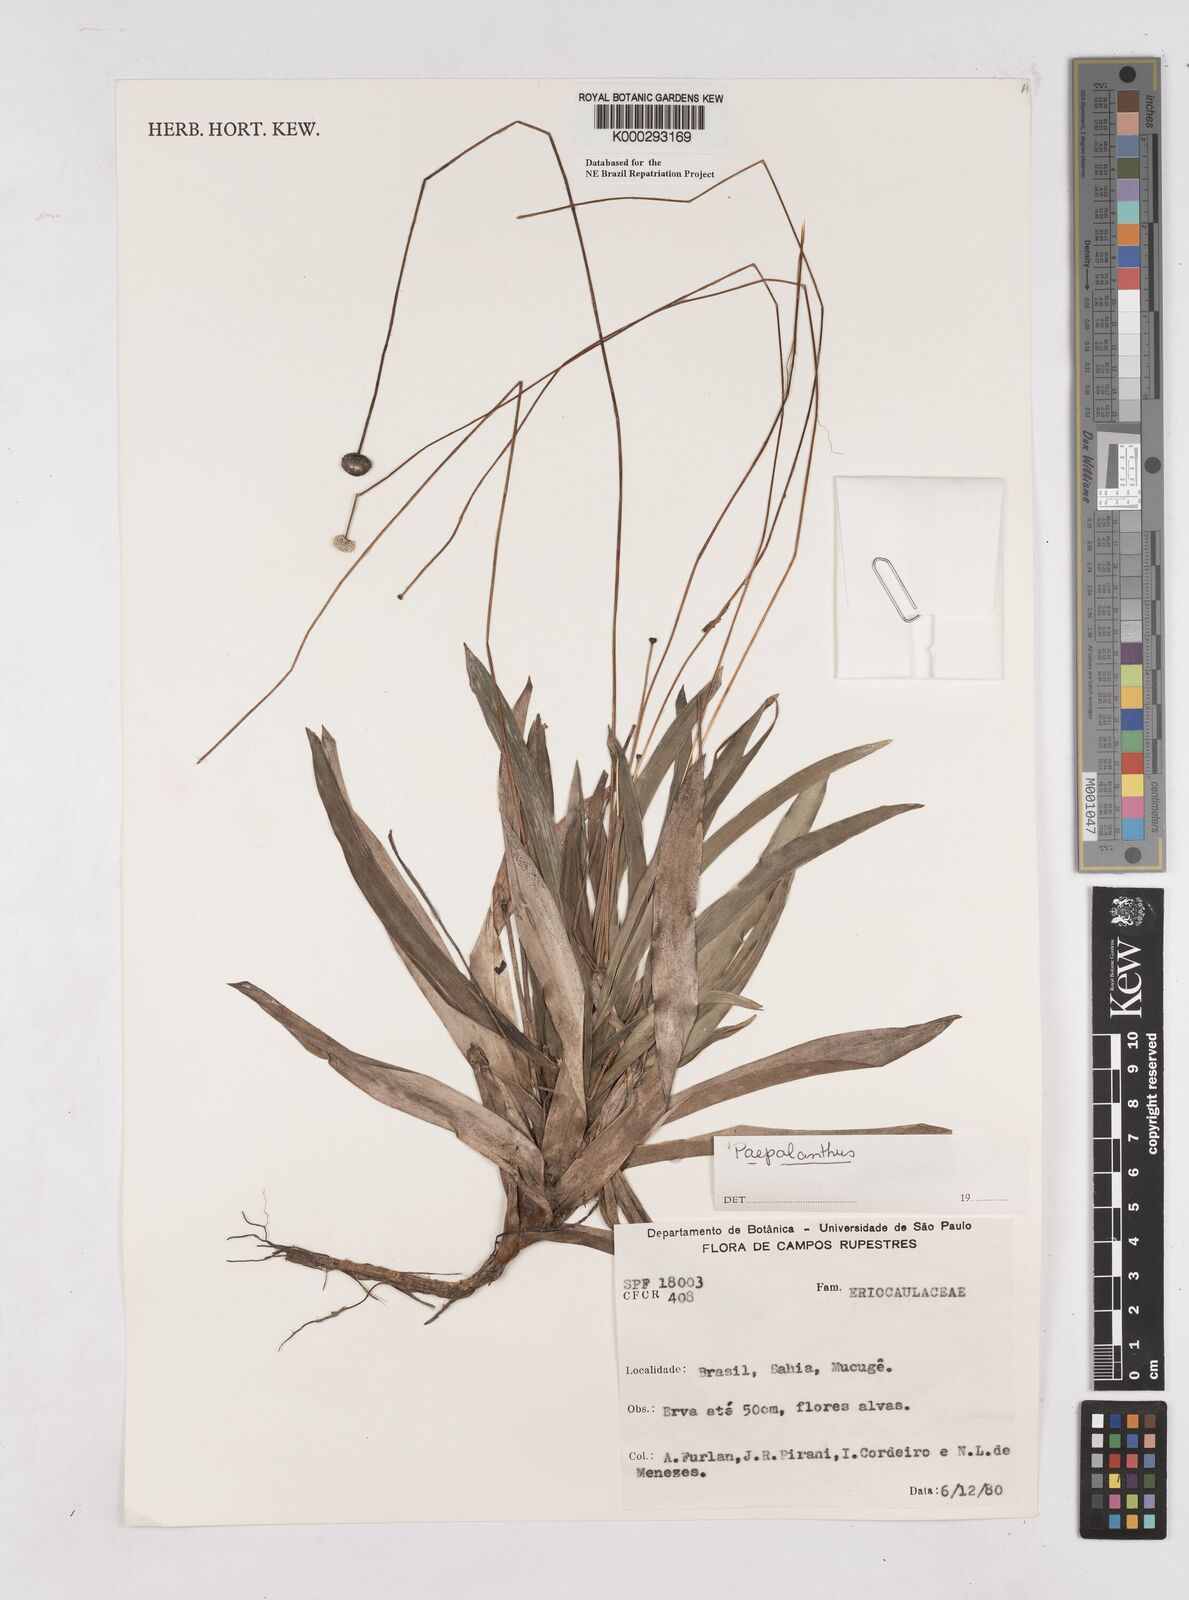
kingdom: Plantae
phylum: Tracheophyta
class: Liliopsida
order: Poales
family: Eriocaulaceae
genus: Paepalanthus
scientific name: Paepalanthus
